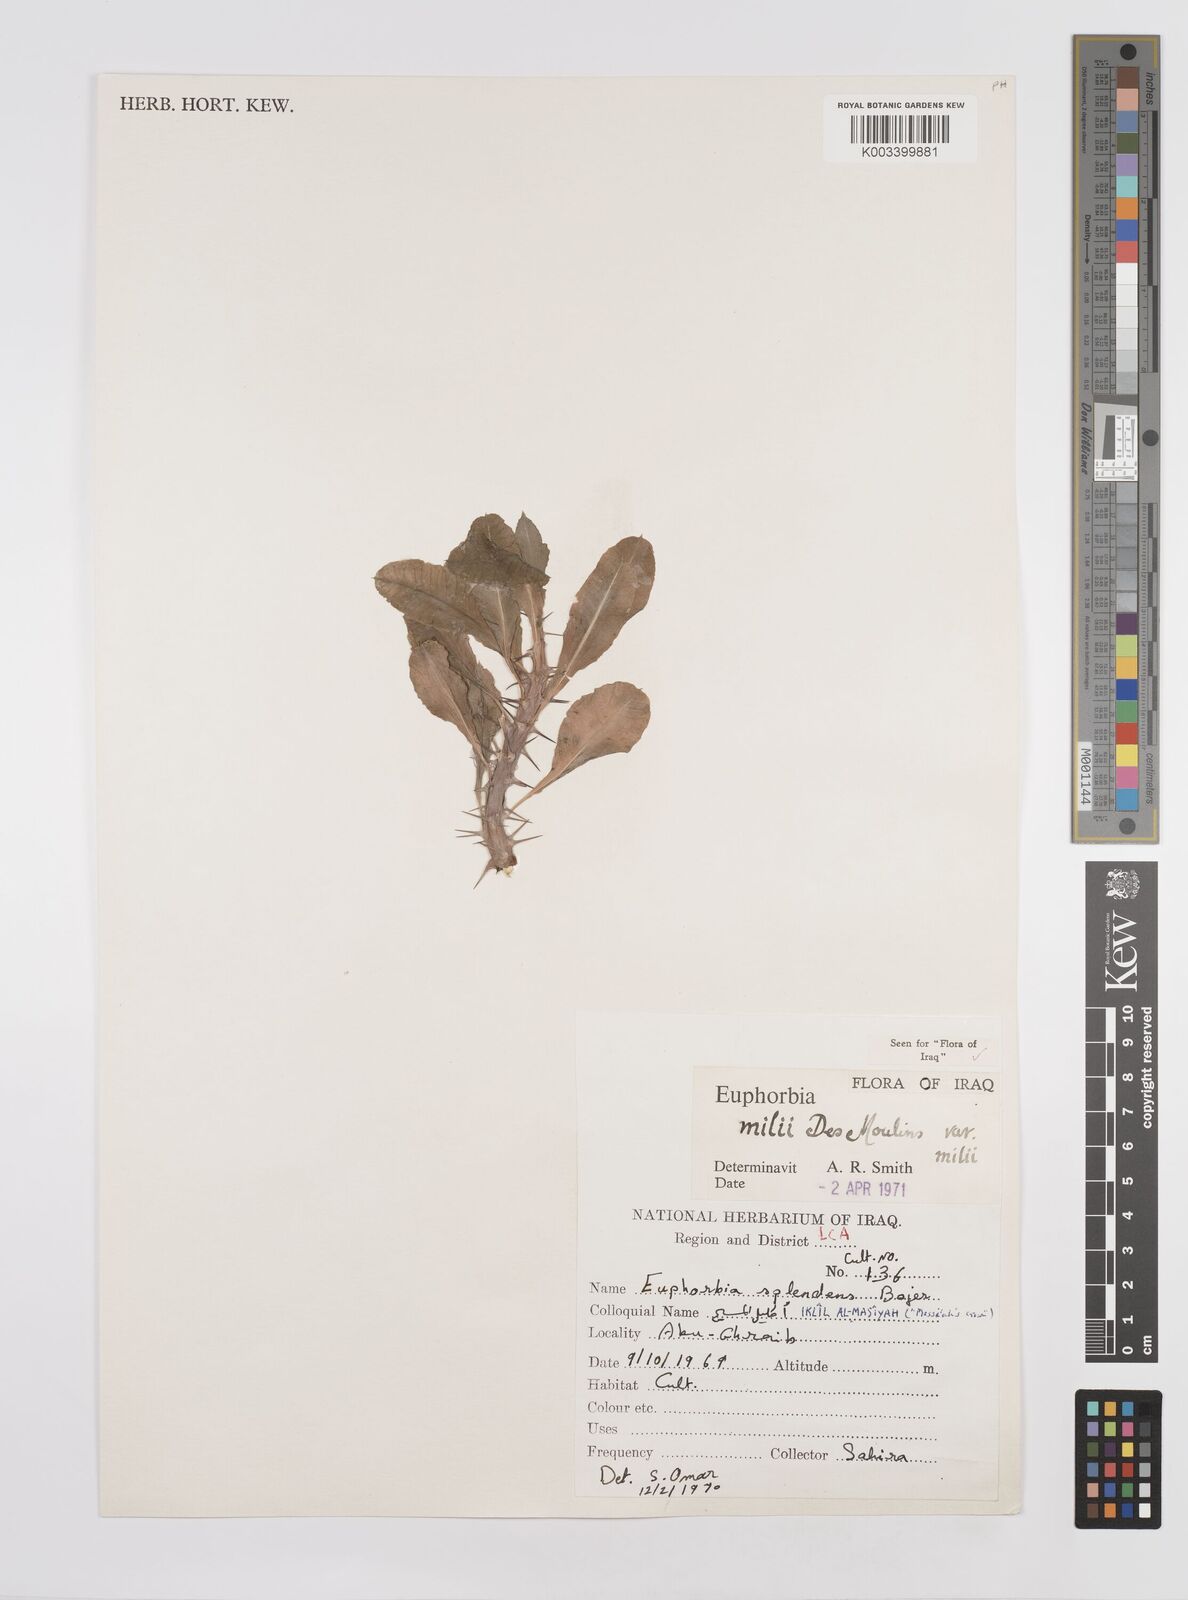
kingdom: Plantae
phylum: Tracheophyta
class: Magnoliopsida
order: Malpighiales
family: Euphorbiaceae
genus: Euphorbia
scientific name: Euphorbia milii
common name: Christplant
